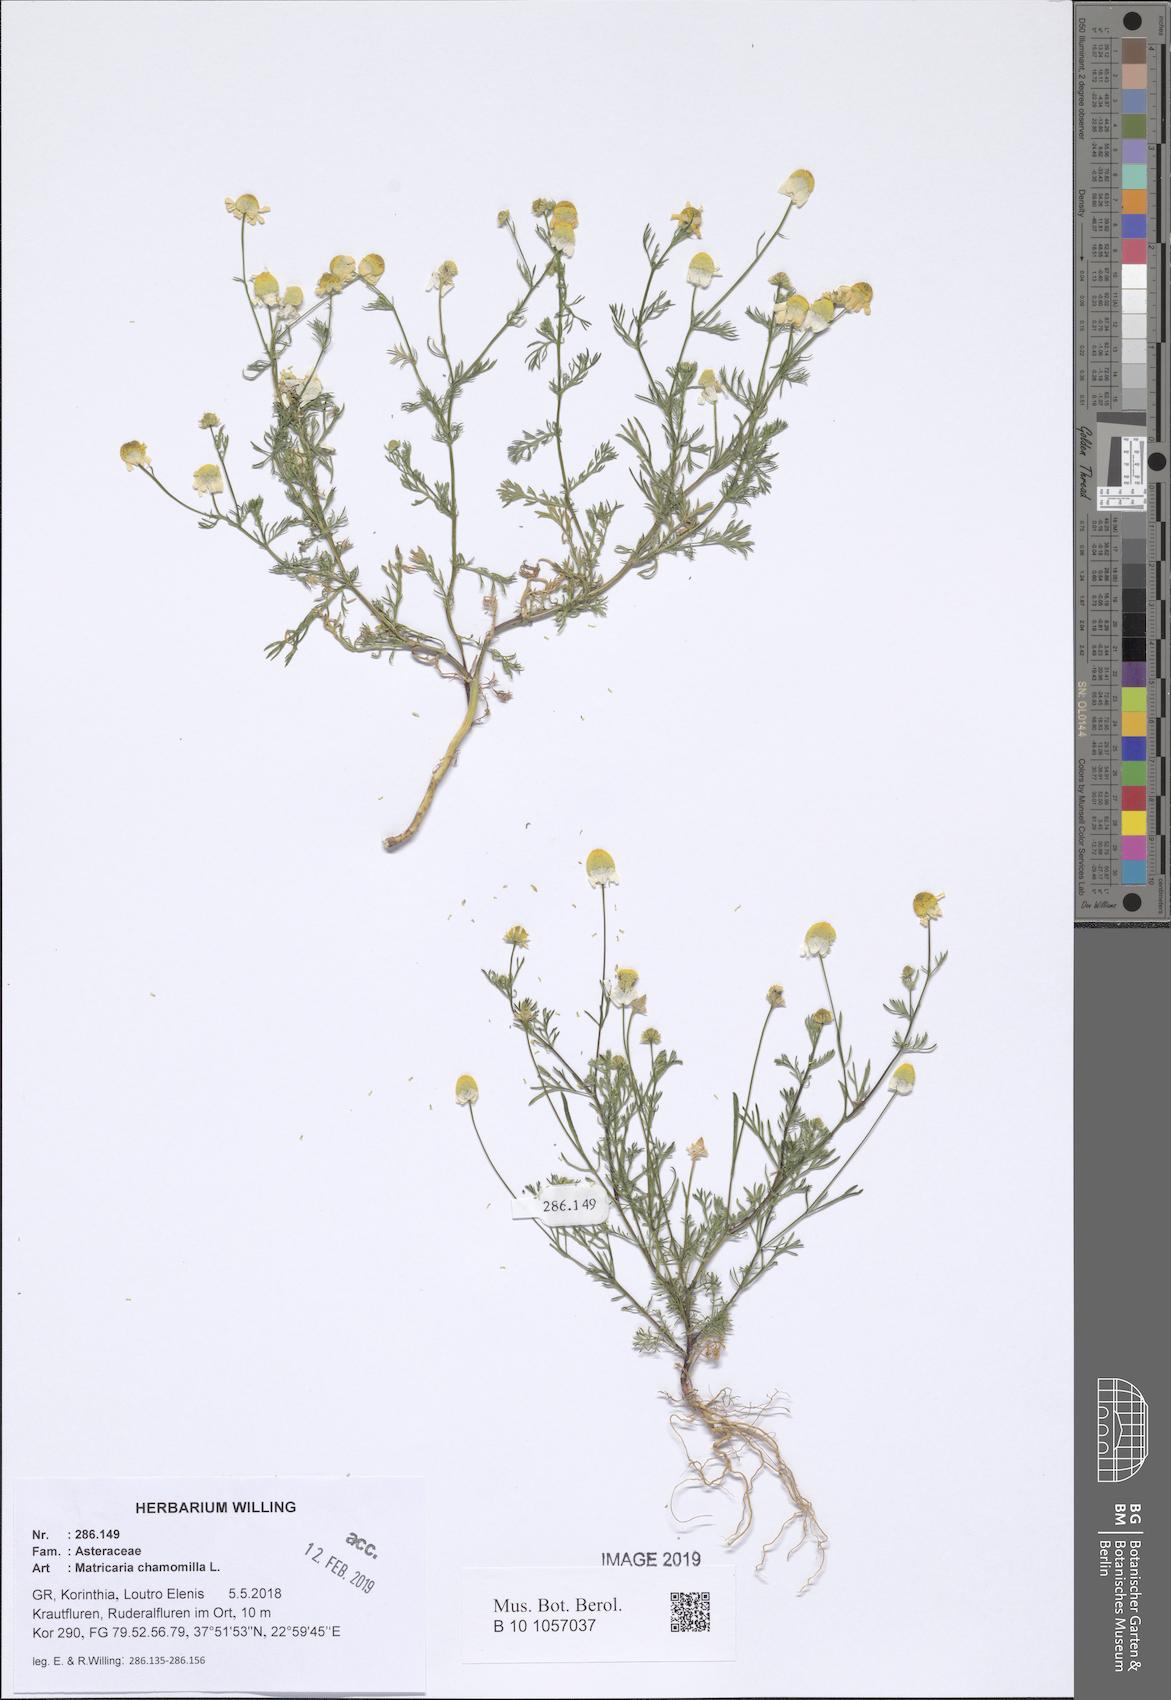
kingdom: Plantae
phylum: Tracheophyta
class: Magnoliopsida
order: Asterales
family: Asteraceae
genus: Matricaria
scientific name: Matricaria chamomilla
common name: Scented mayweed
